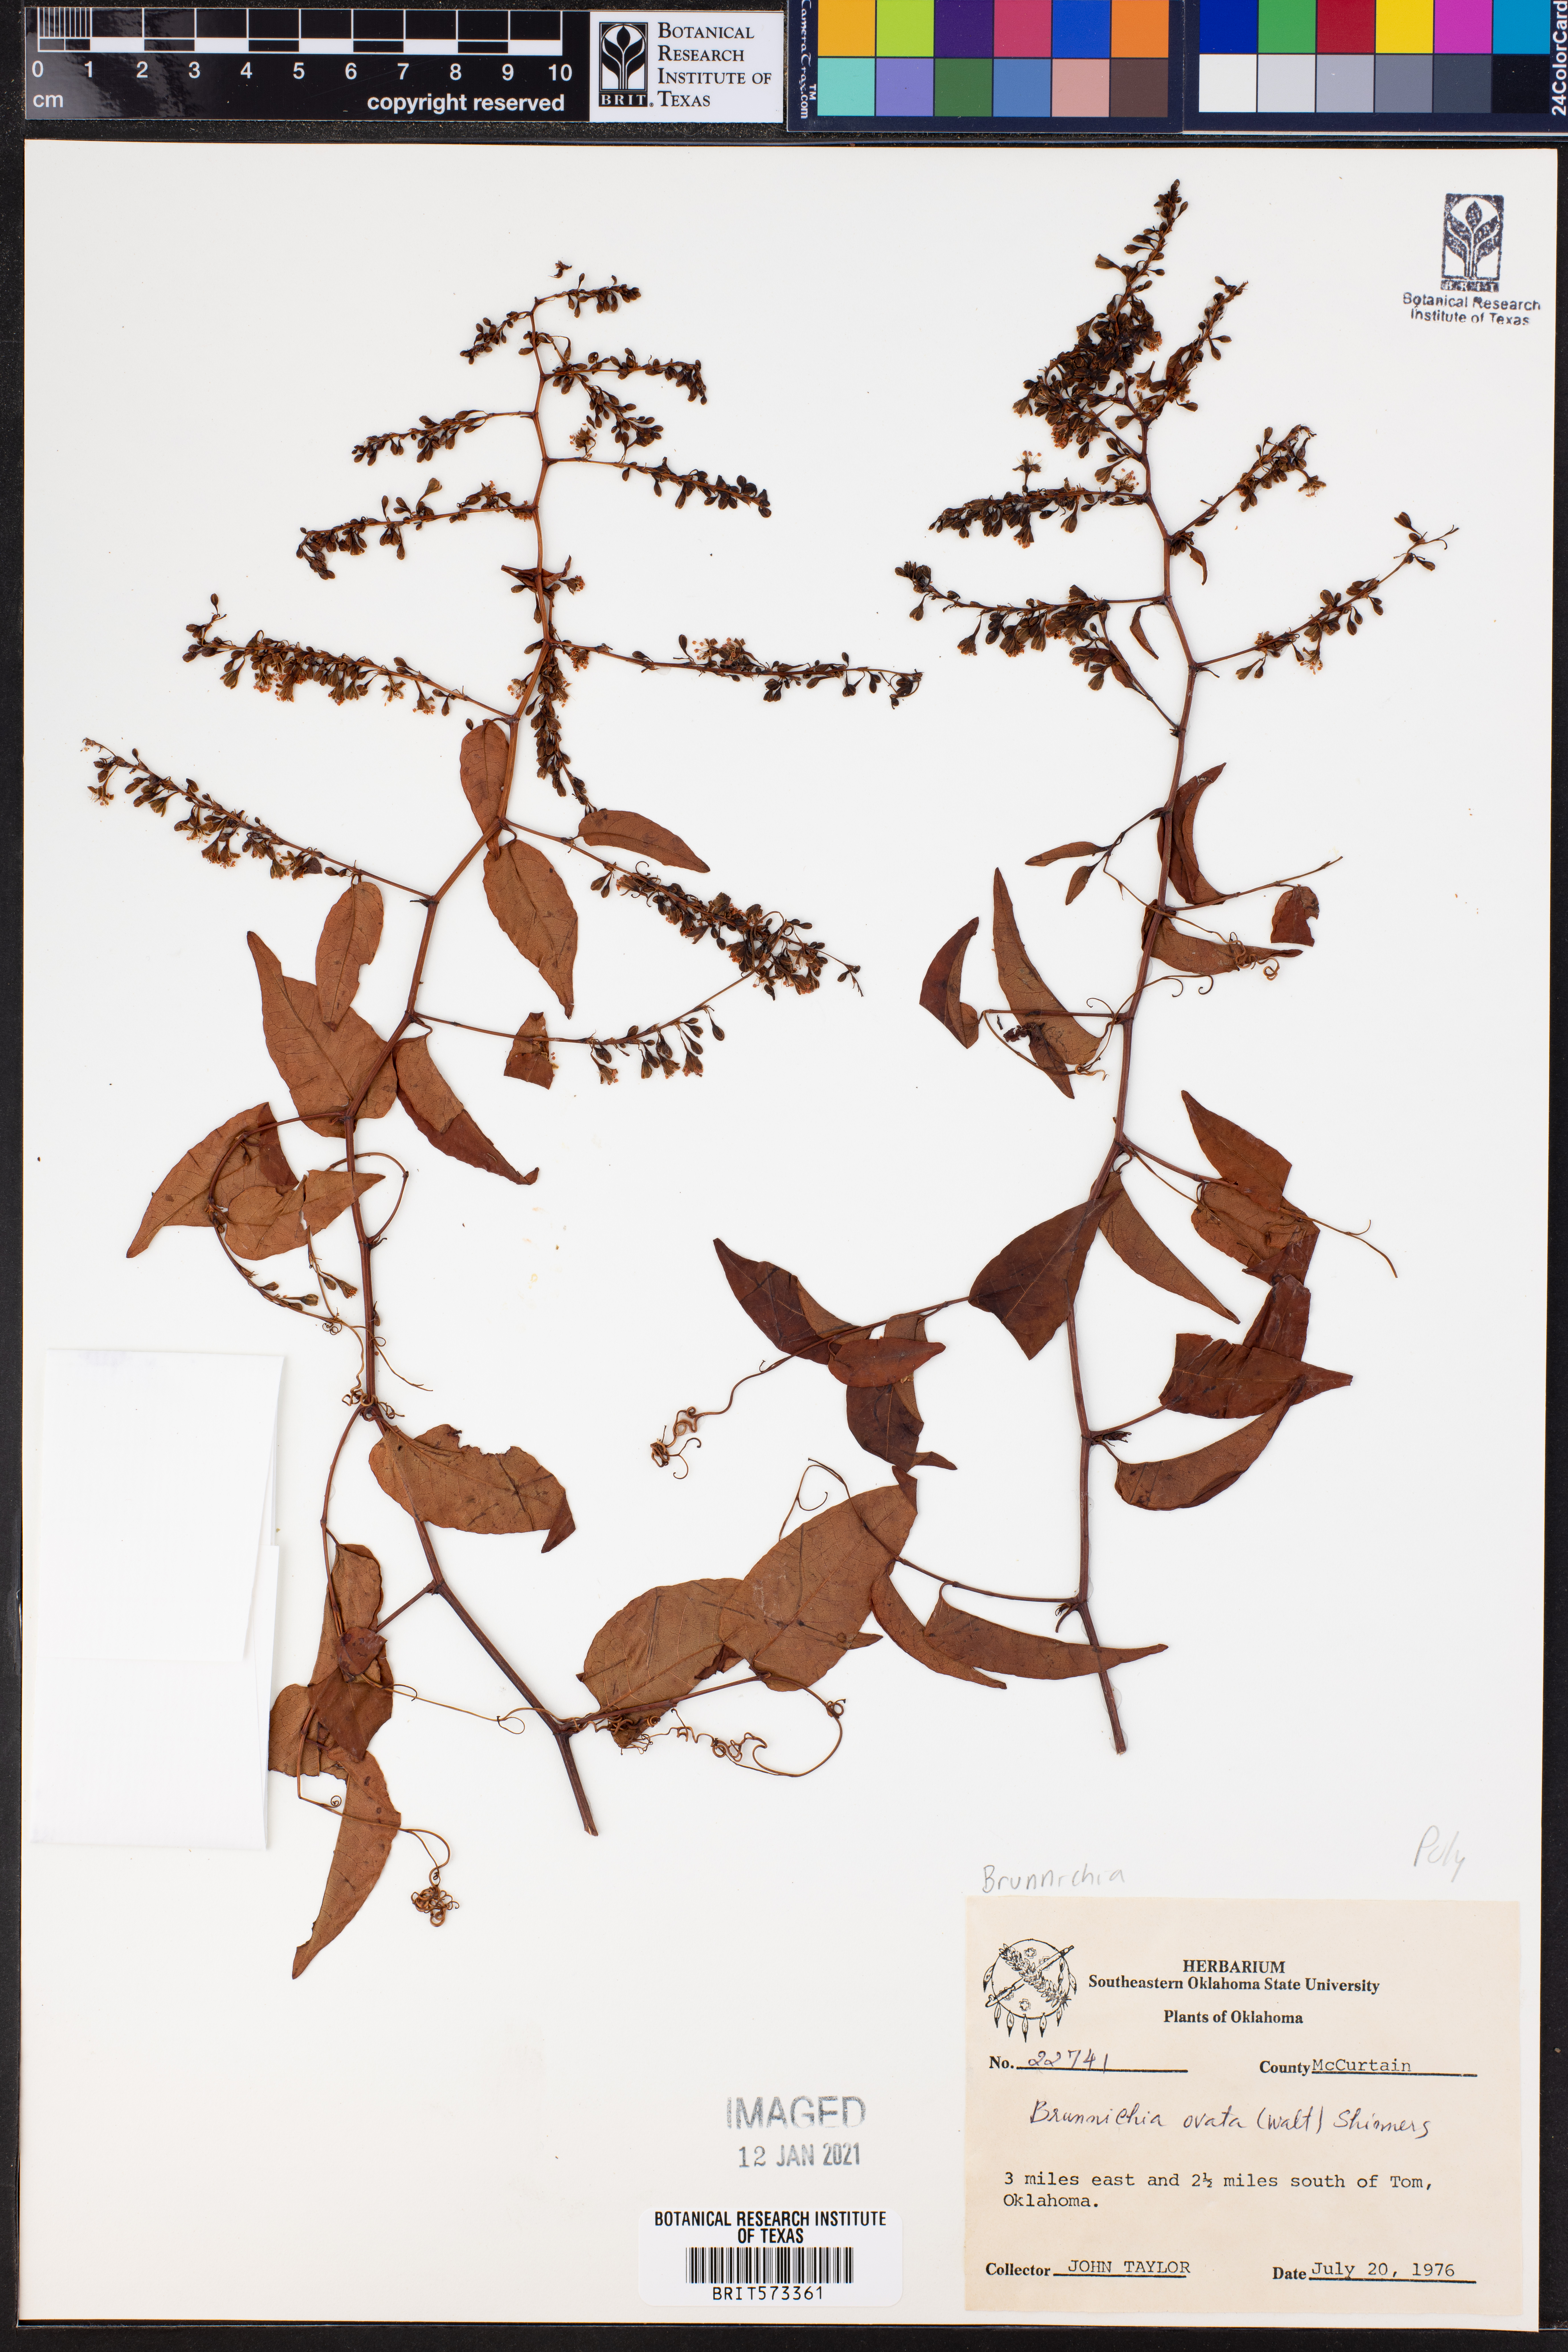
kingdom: Plantae
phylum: Tracheophyta
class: Magnoliopsida
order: Caryophyllales
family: Polygonaceae
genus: Brunnichia
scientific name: Brunnichia ovata
